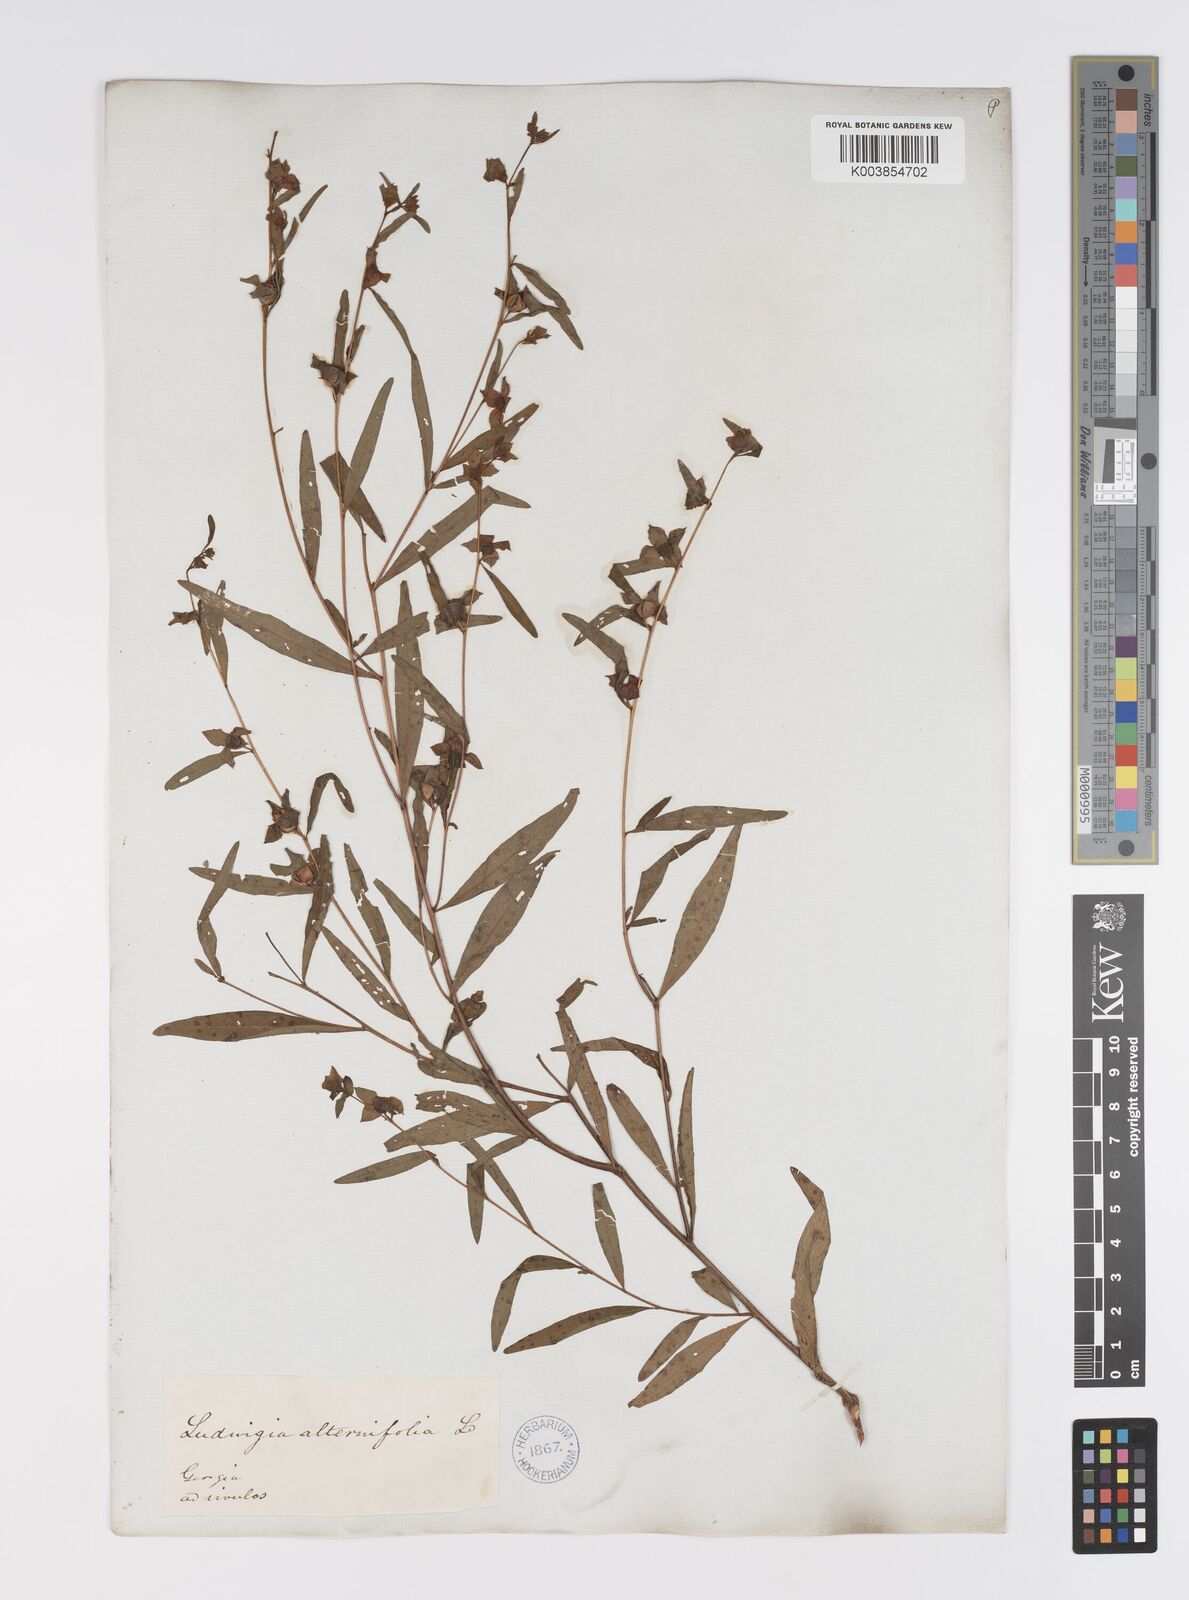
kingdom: Plantae
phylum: Tracheophyta
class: Magnoliopsida
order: Myrtales
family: Onagraceae
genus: Ludwigia
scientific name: Ludwigia alternifolia
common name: Rattlebox
